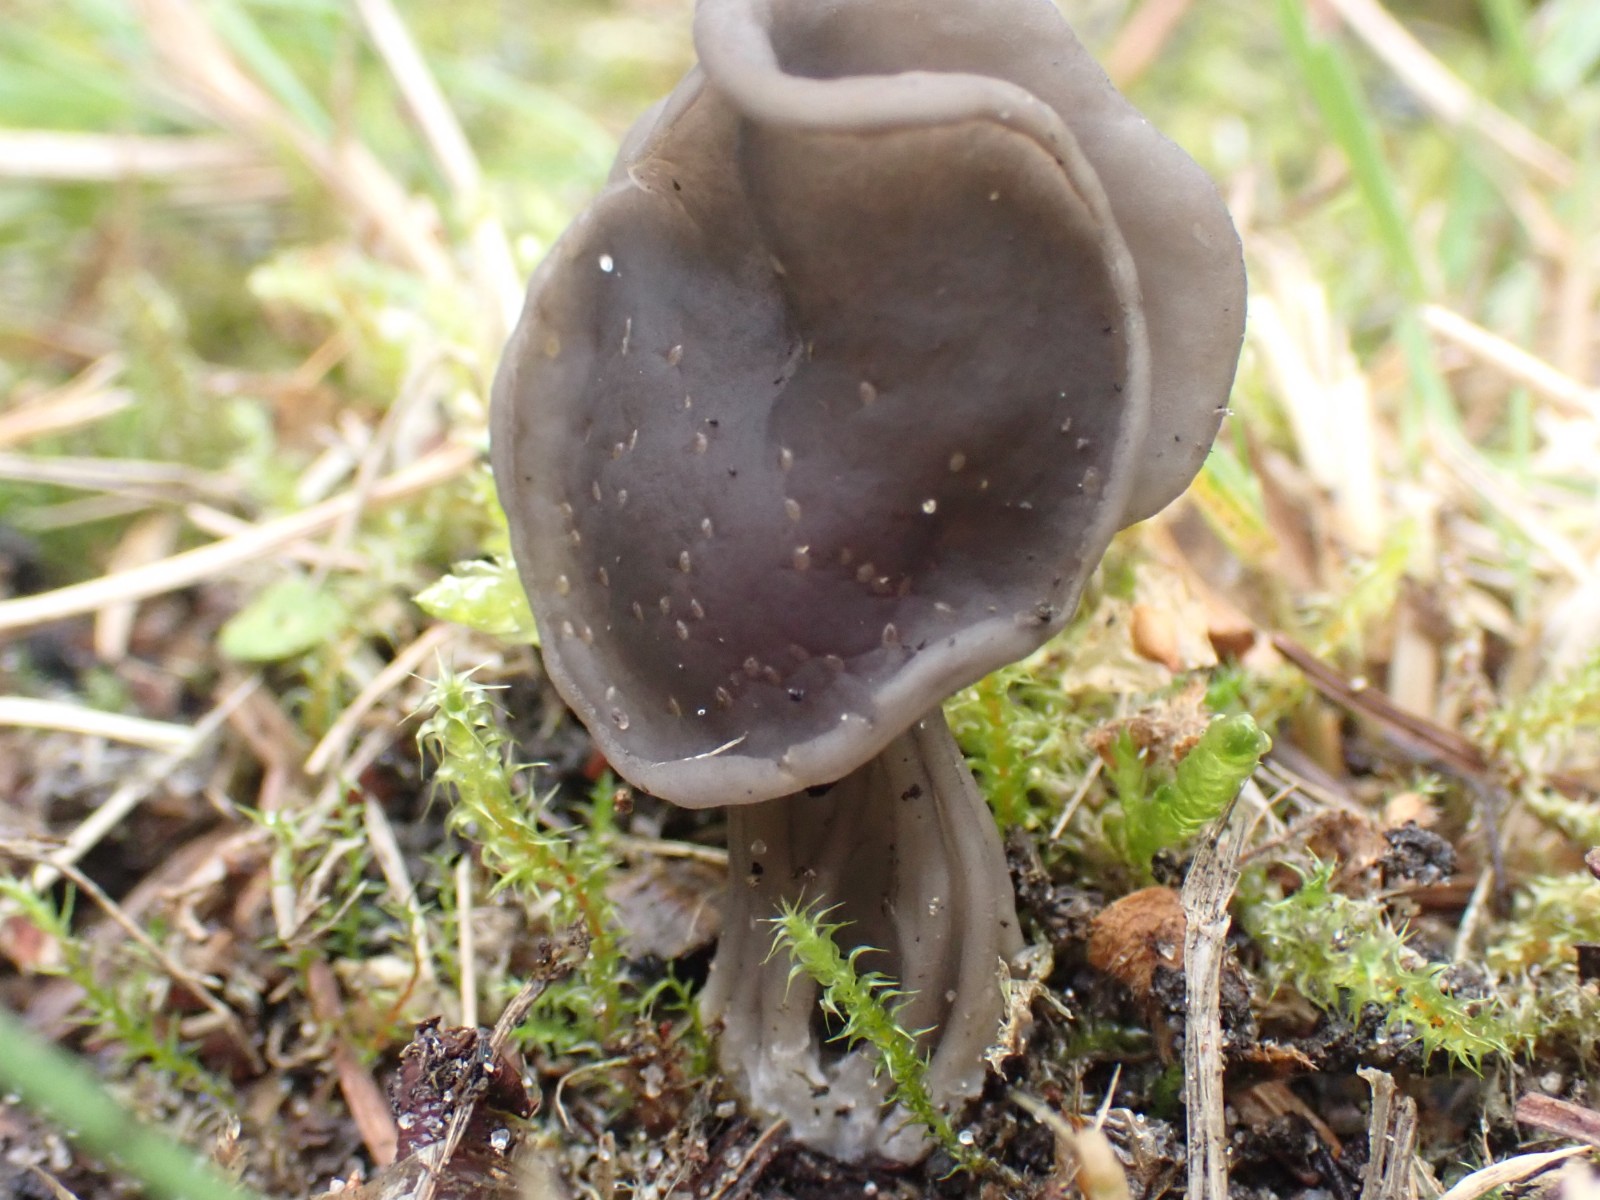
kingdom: Fungi
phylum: Ascomycota
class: Pezizomycetes
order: Pezizales
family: Helvellaceae
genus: Helvella
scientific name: Helvella lacunosa
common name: grubet foldhat
